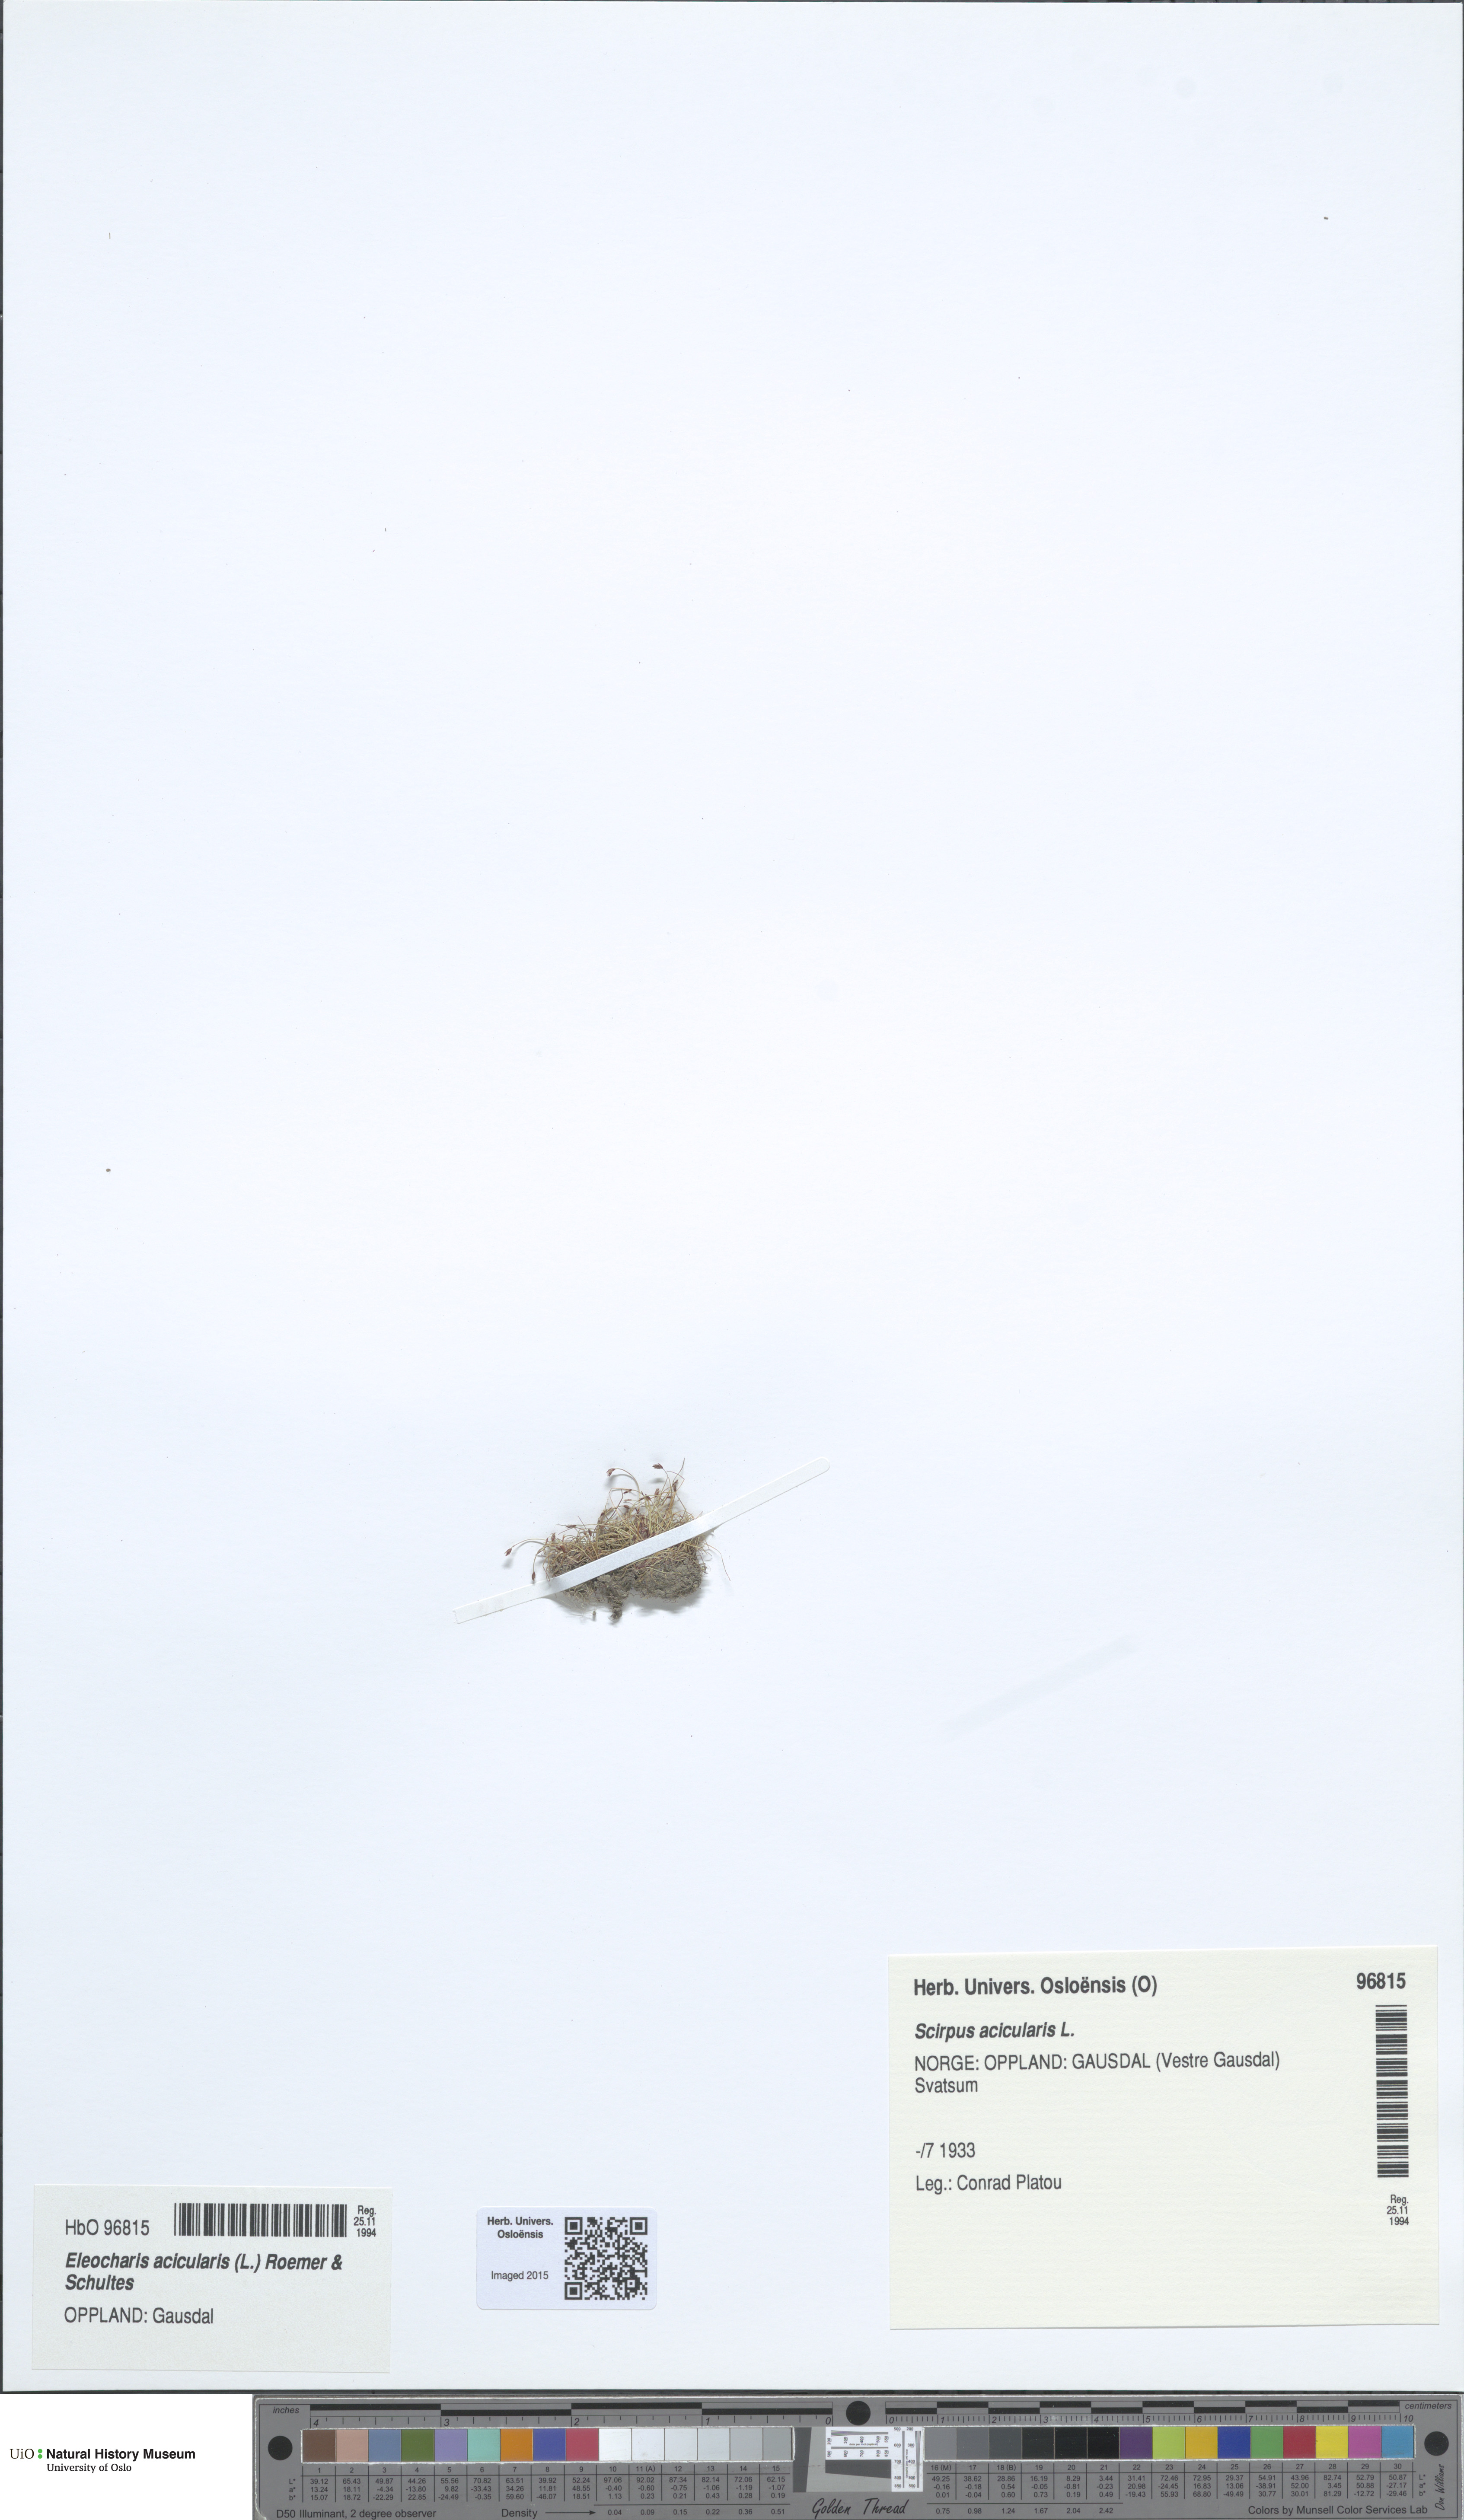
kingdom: Plantae
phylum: Tracheophyta
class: Liliopsida
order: Poales
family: Cyperaceae
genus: Eleocharis
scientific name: Eleocharis acicularis
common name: Needle spike-rush
